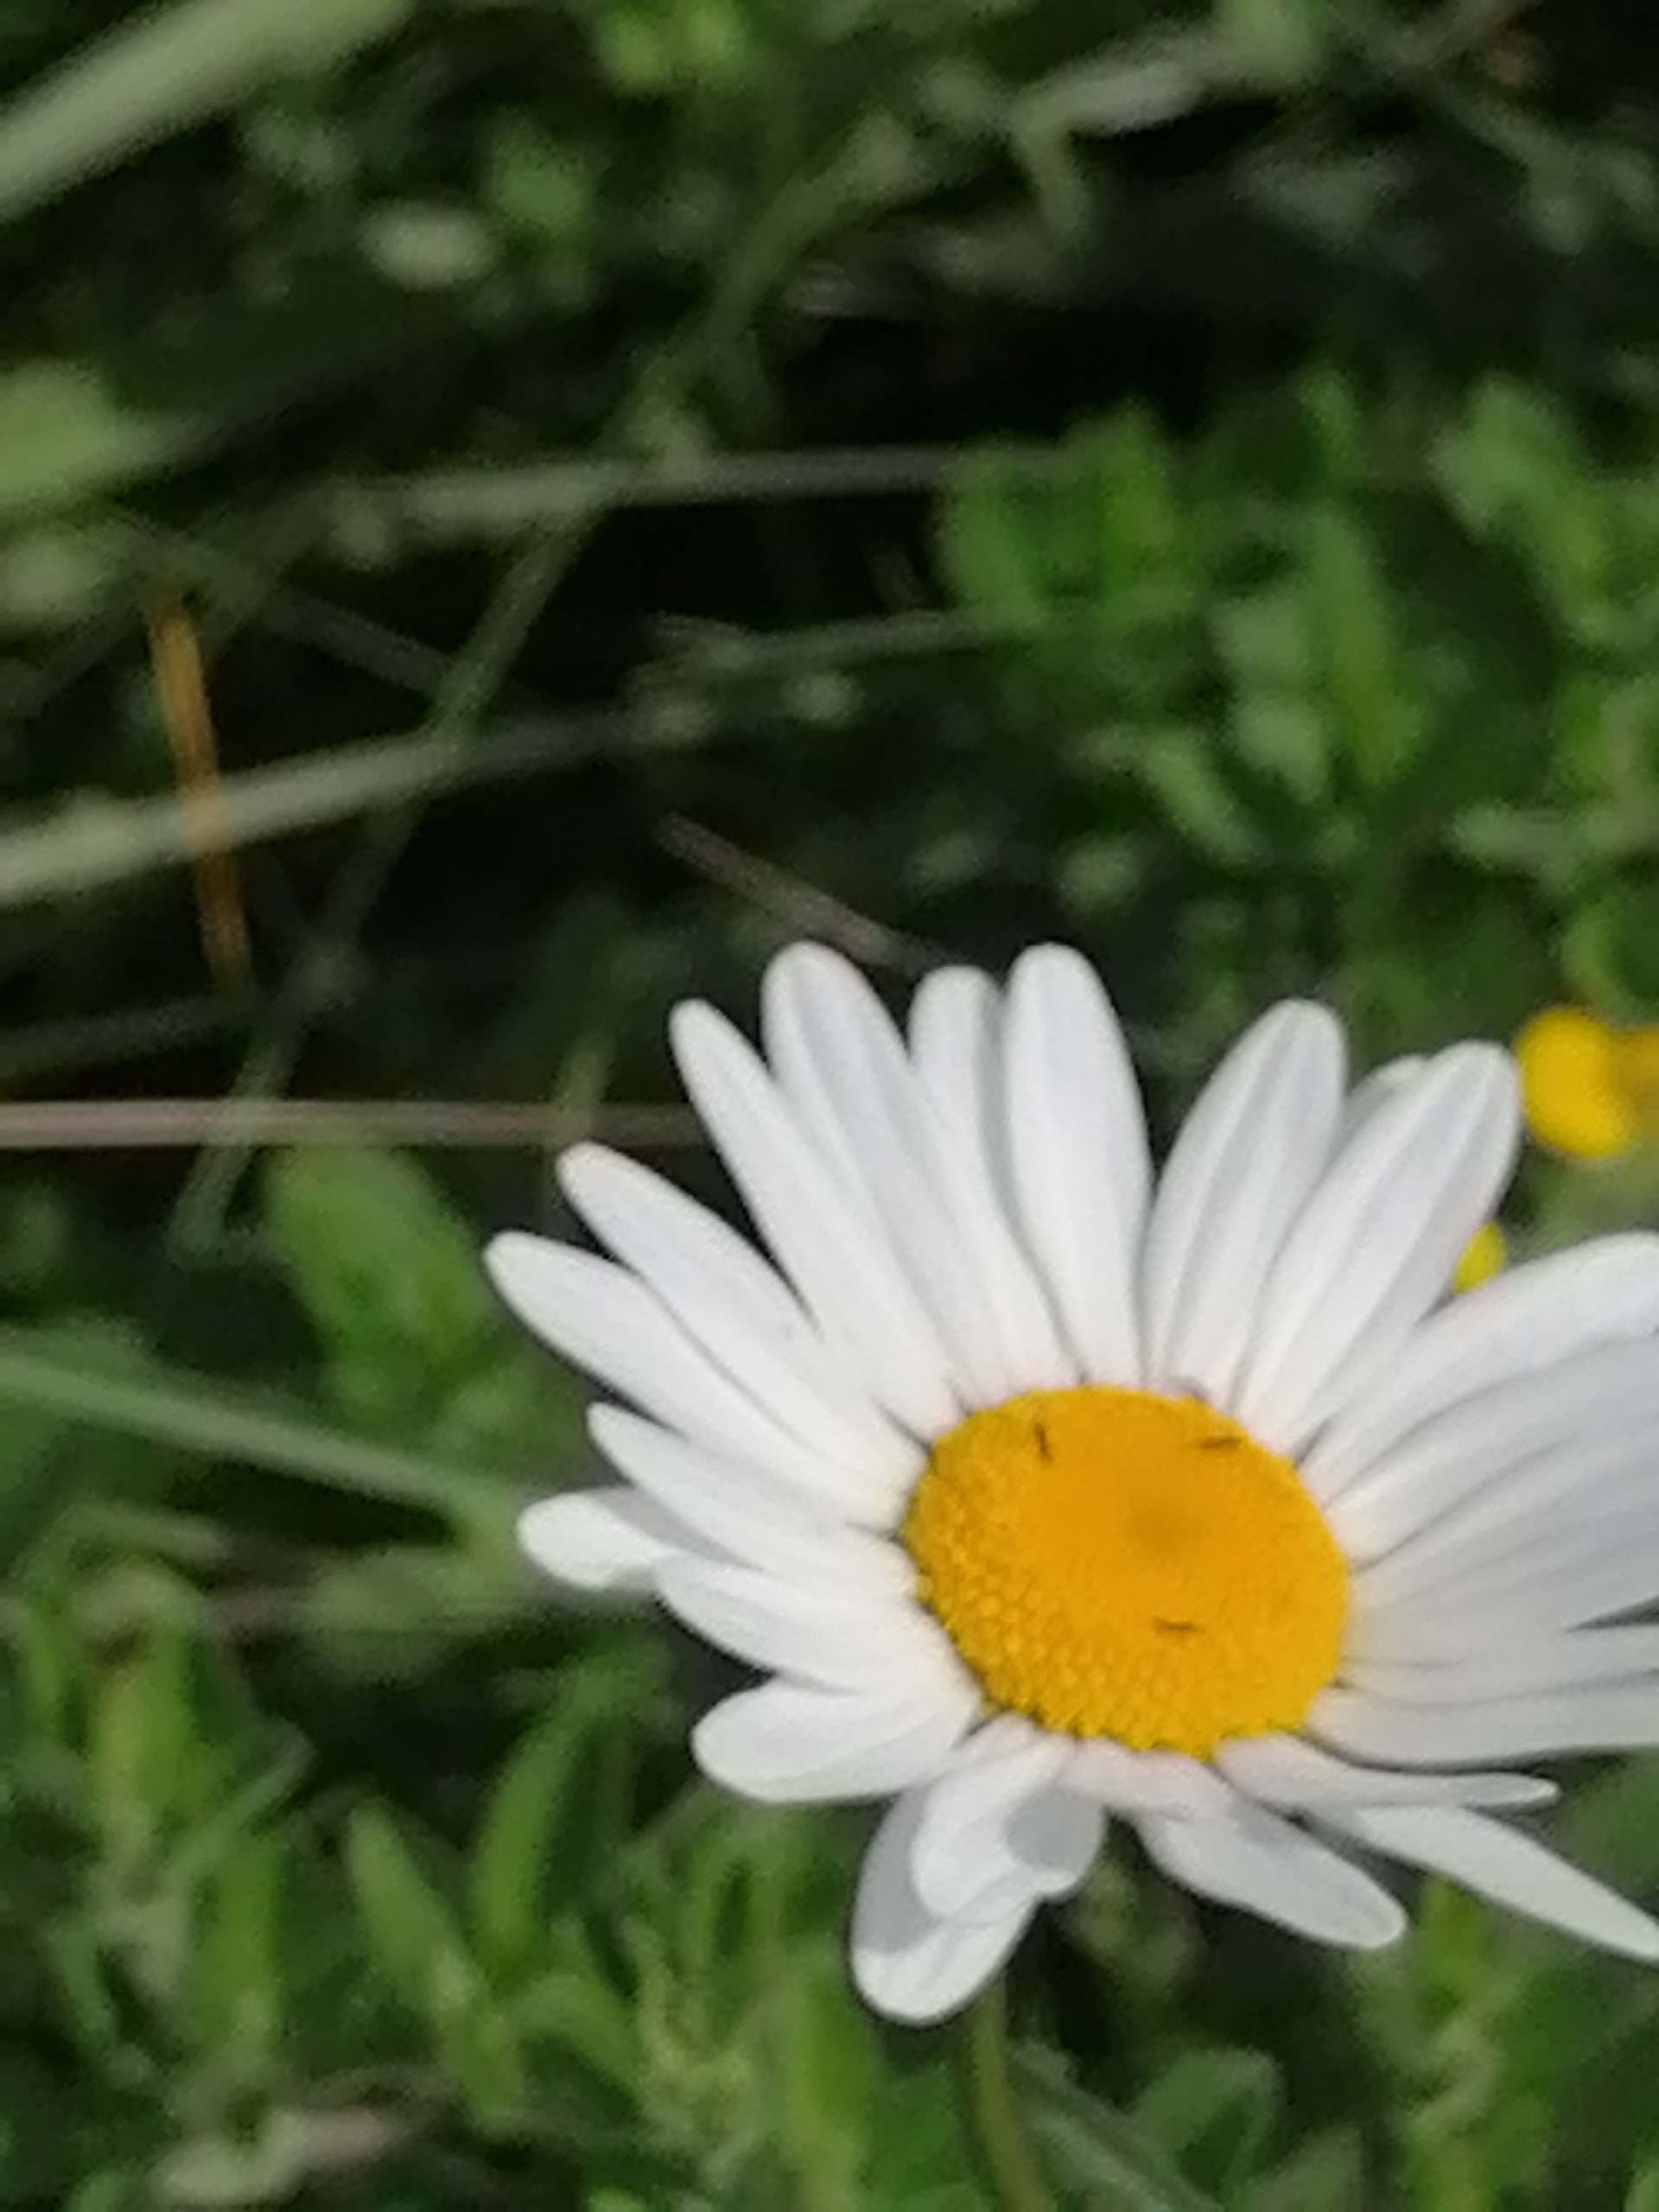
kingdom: Plantae
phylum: Tracheophyta
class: Magnoliopsida
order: Asterales
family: Asteraceae
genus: Leucanthemum
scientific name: Leucanthemum vulgare
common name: Hvid okseøje
